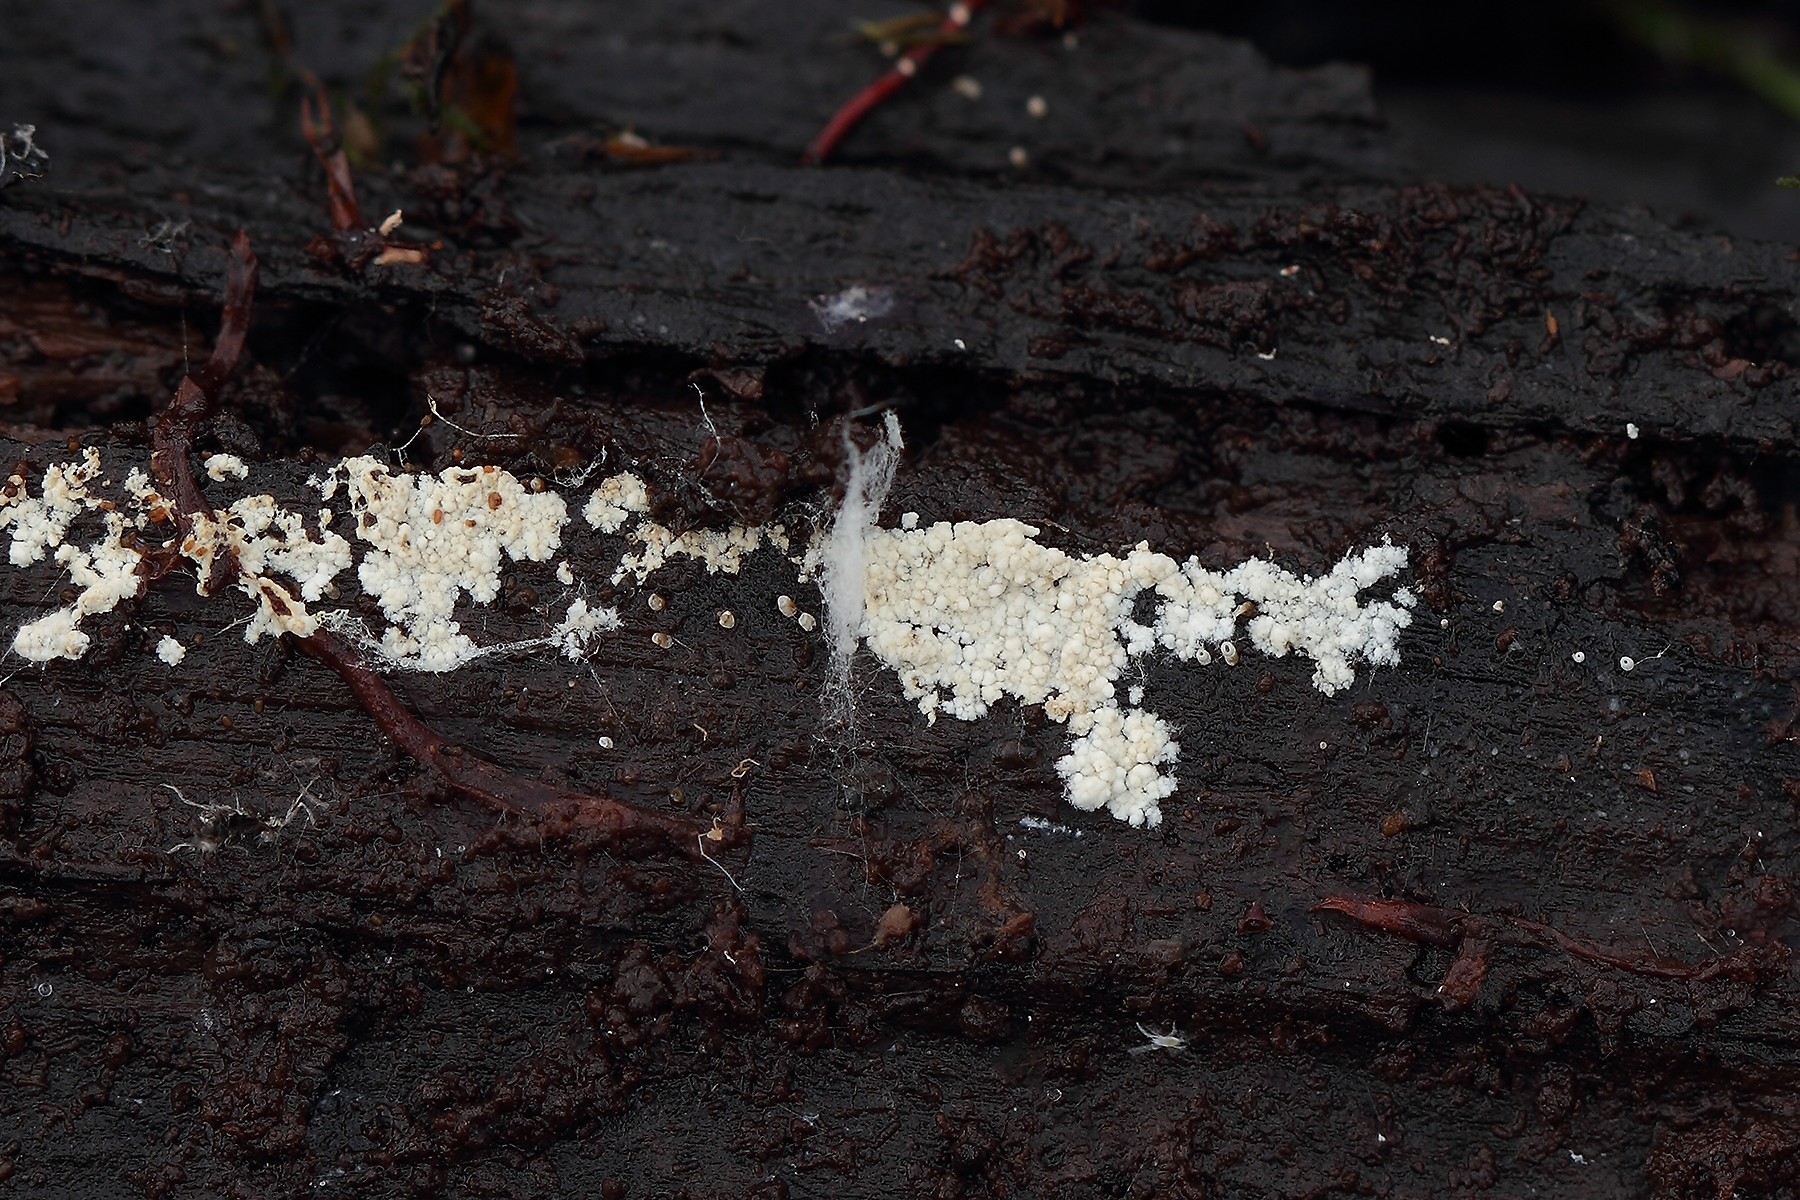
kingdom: Fungi
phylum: Basidiomycota
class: Agaricomycetes
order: Agaricales
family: Stephanosporaceae
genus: Cristinia
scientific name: Cristinia helvetica
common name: glatsporet citrushinde
